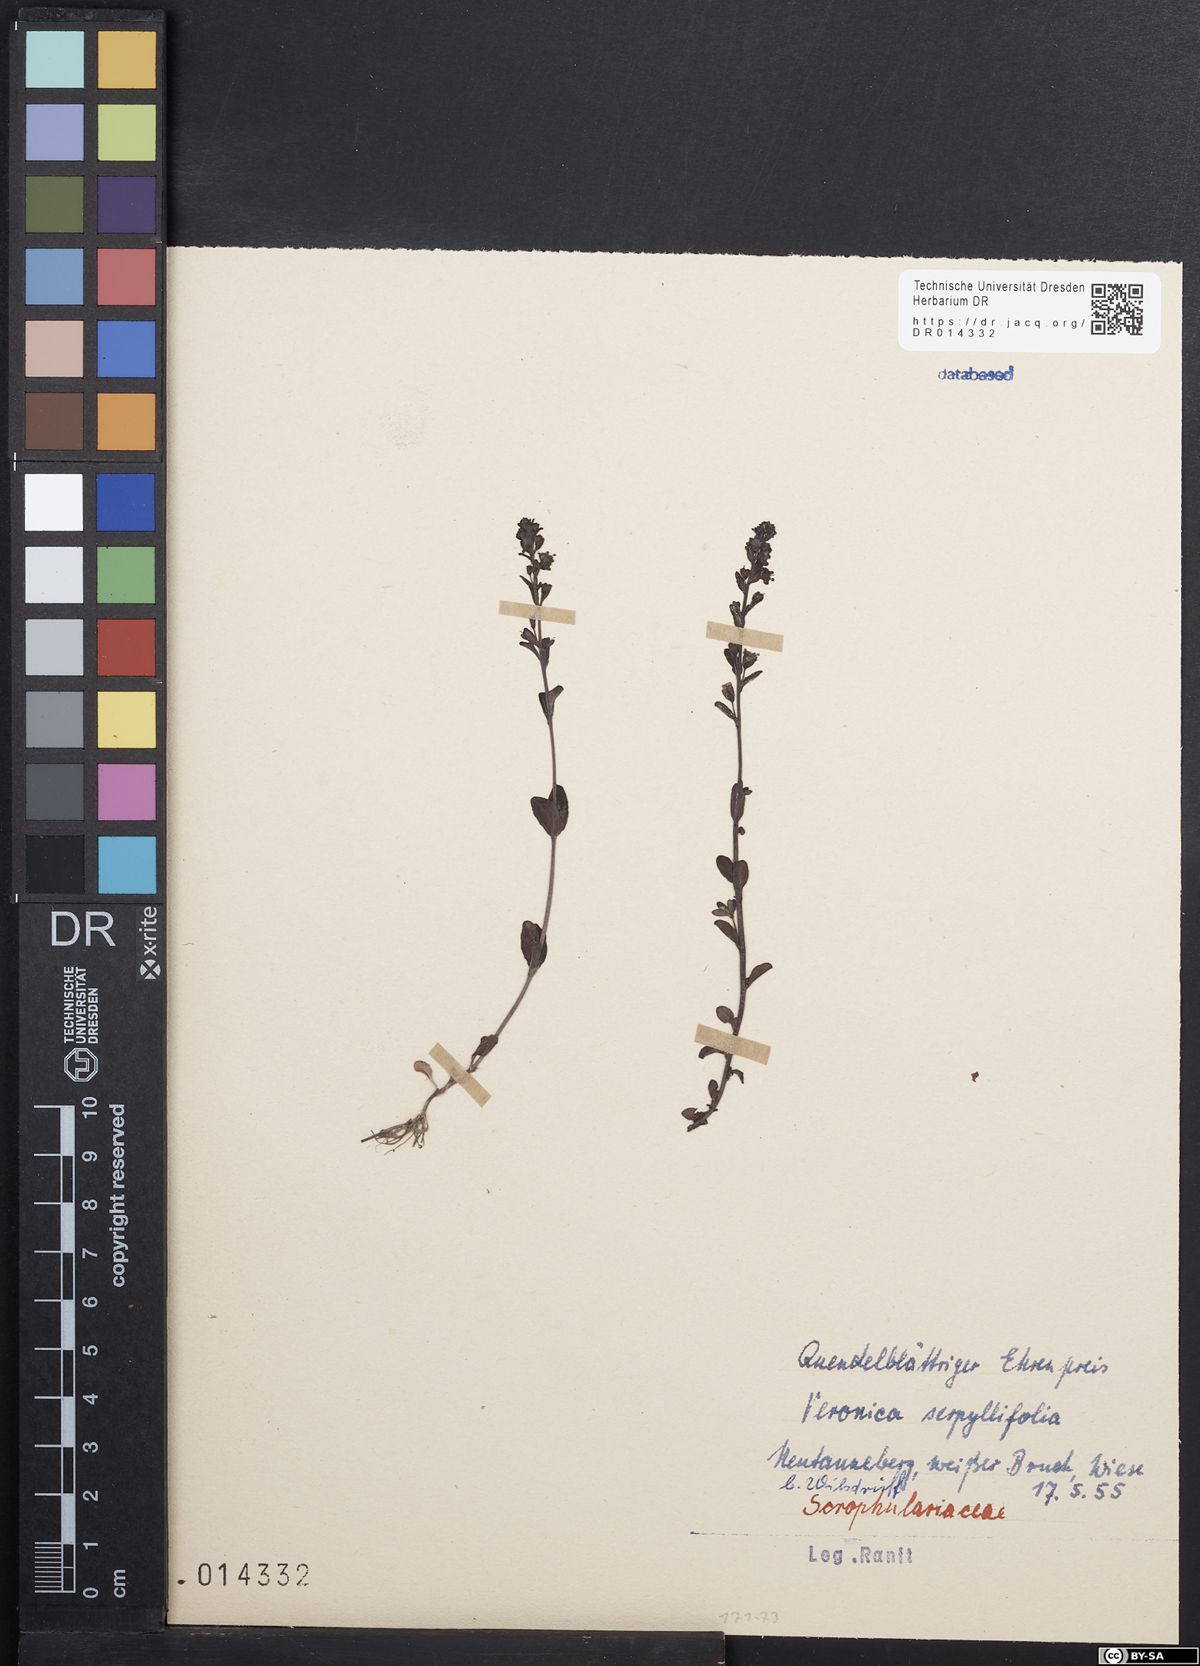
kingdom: Plantae
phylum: Tracheophyta
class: Magnoliopsida
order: Lamiales
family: Plantaginaceae
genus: Veronica
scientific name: Veronica serpyllifolia
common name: Thyme-leaved speedwell
